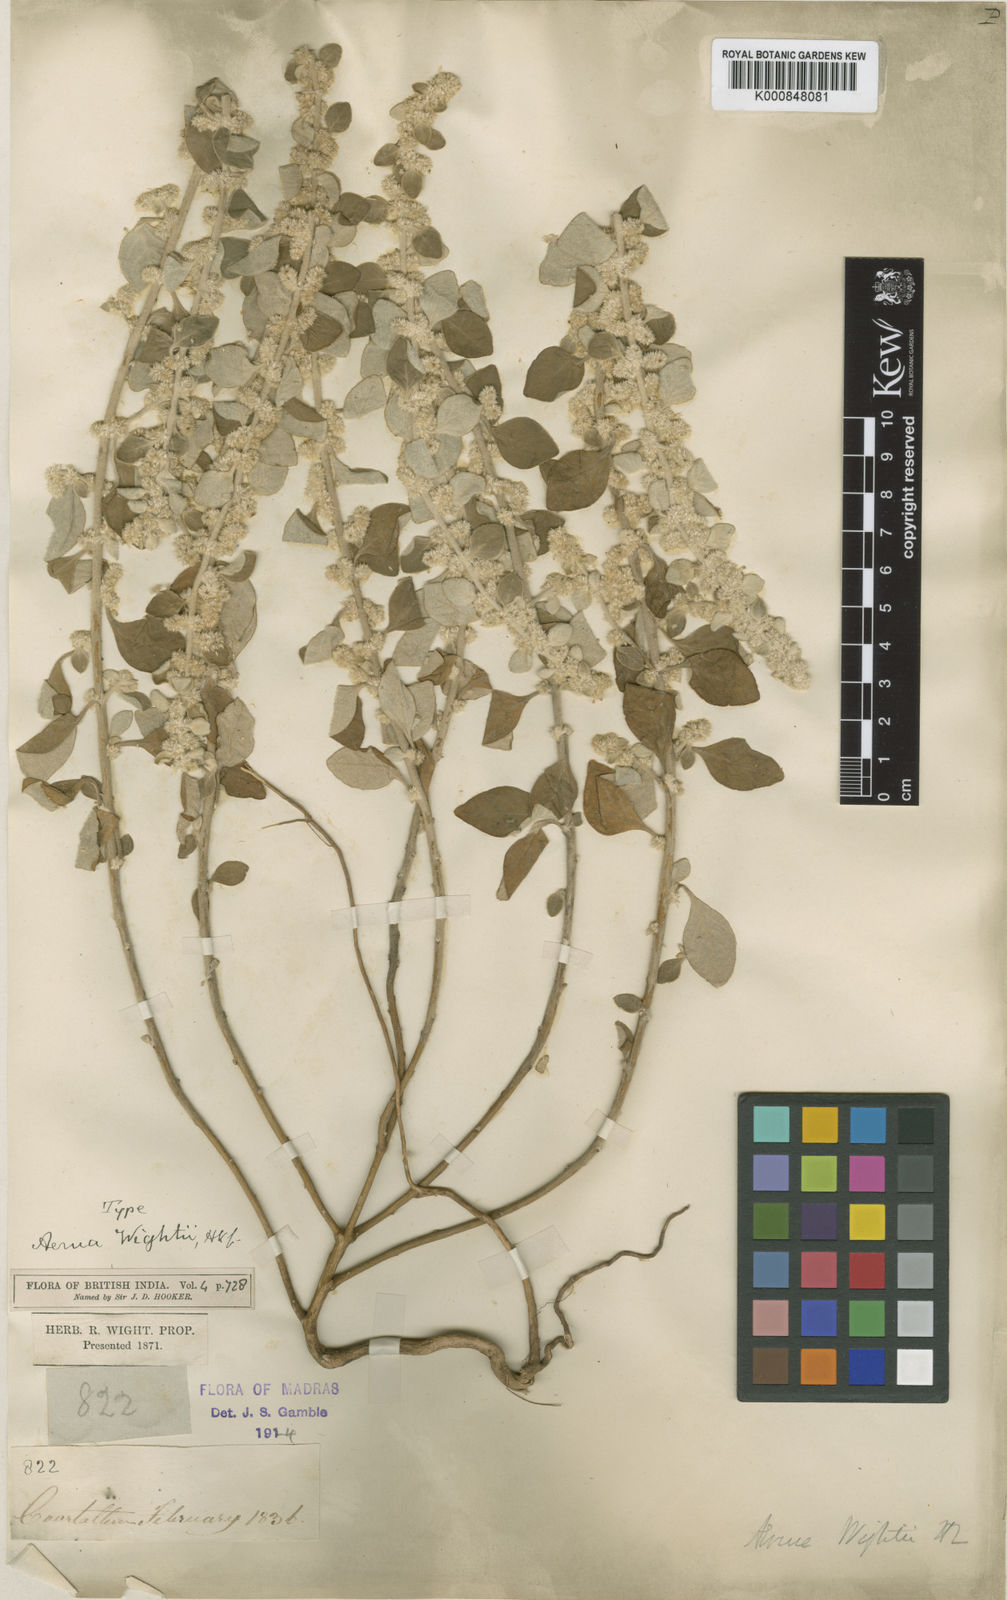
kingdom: Plantae
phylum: Tracheophyta
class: Magnoliopsida
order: Caryophyllales
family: Amaranthaceae
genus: Ouret
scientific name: Ouret wightii
